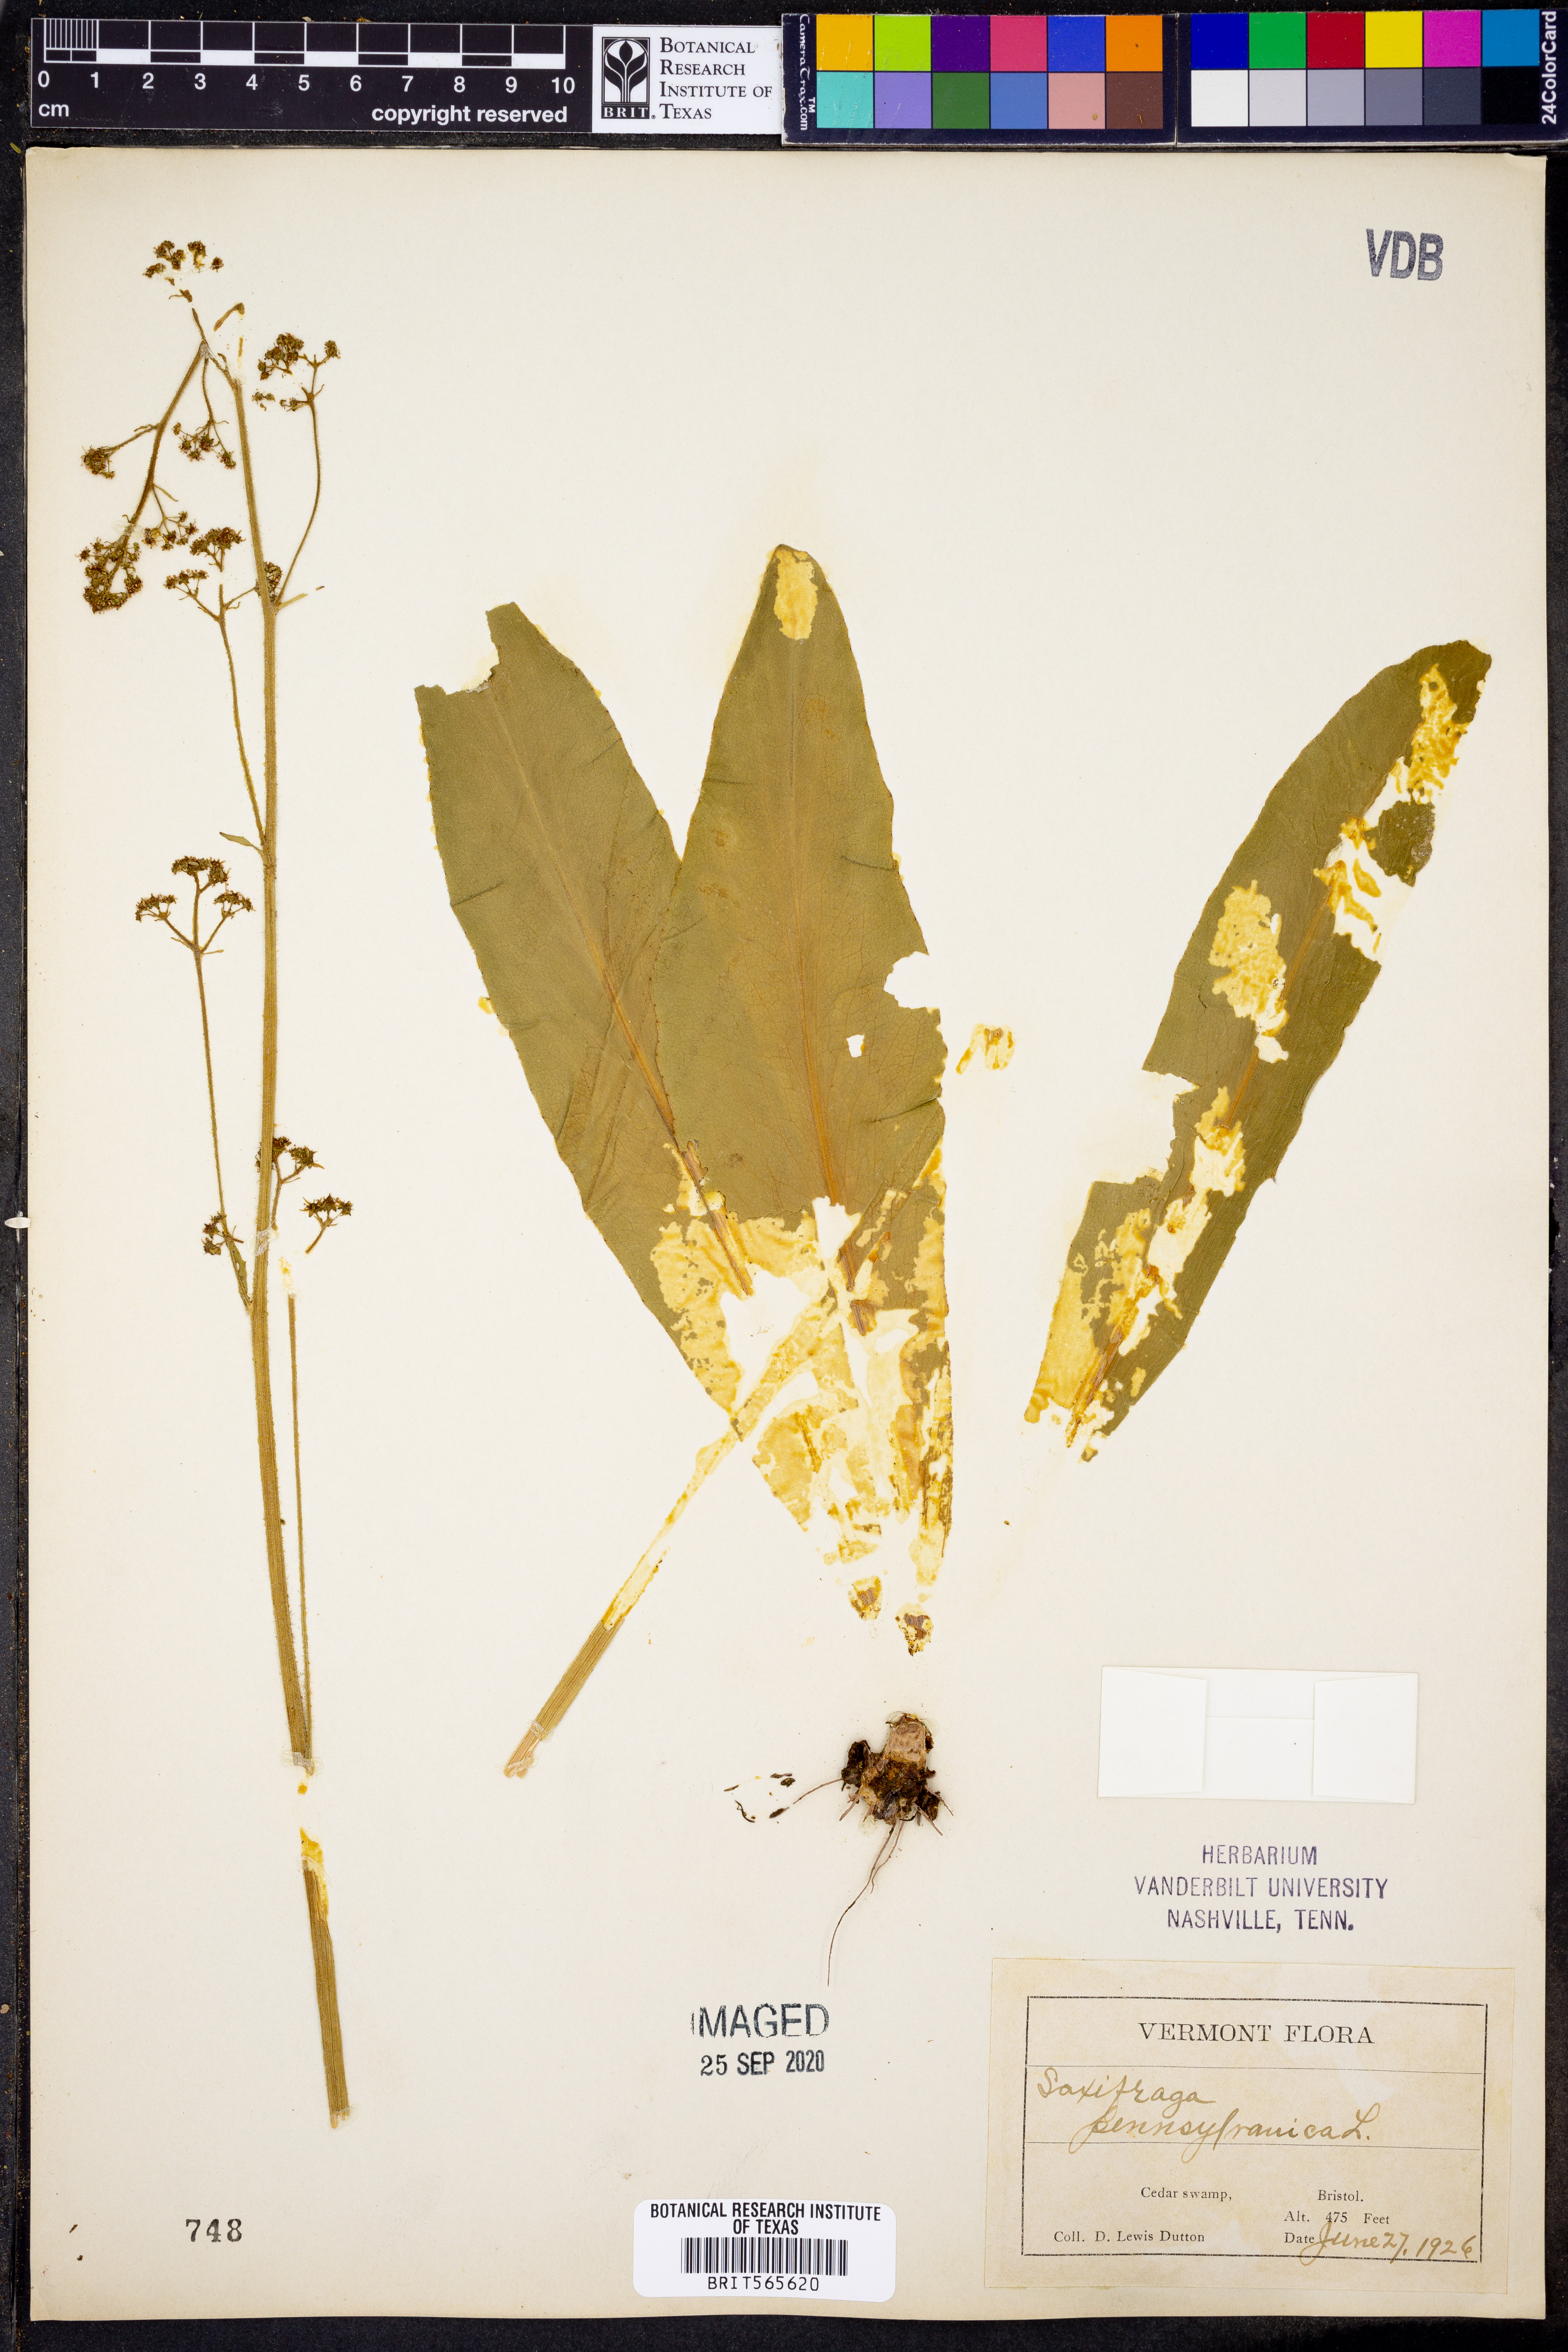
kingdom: Plantae
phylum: Tracheophyta
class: Magnoliopsida
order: Saxifragales
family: Saxifragaceae
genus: Micranthes
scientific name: Micranthes pensylvanica
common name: Marsh saxifrage
